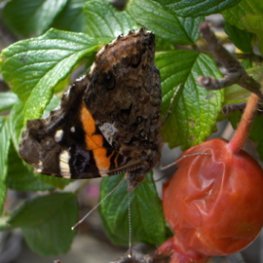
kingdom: Animalia
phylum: Arthropoda
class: Insecta
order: Lepidoptera
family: Nymphalidae
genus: Vanessa
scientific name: Vanessa atalanta
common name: Red Admiral
